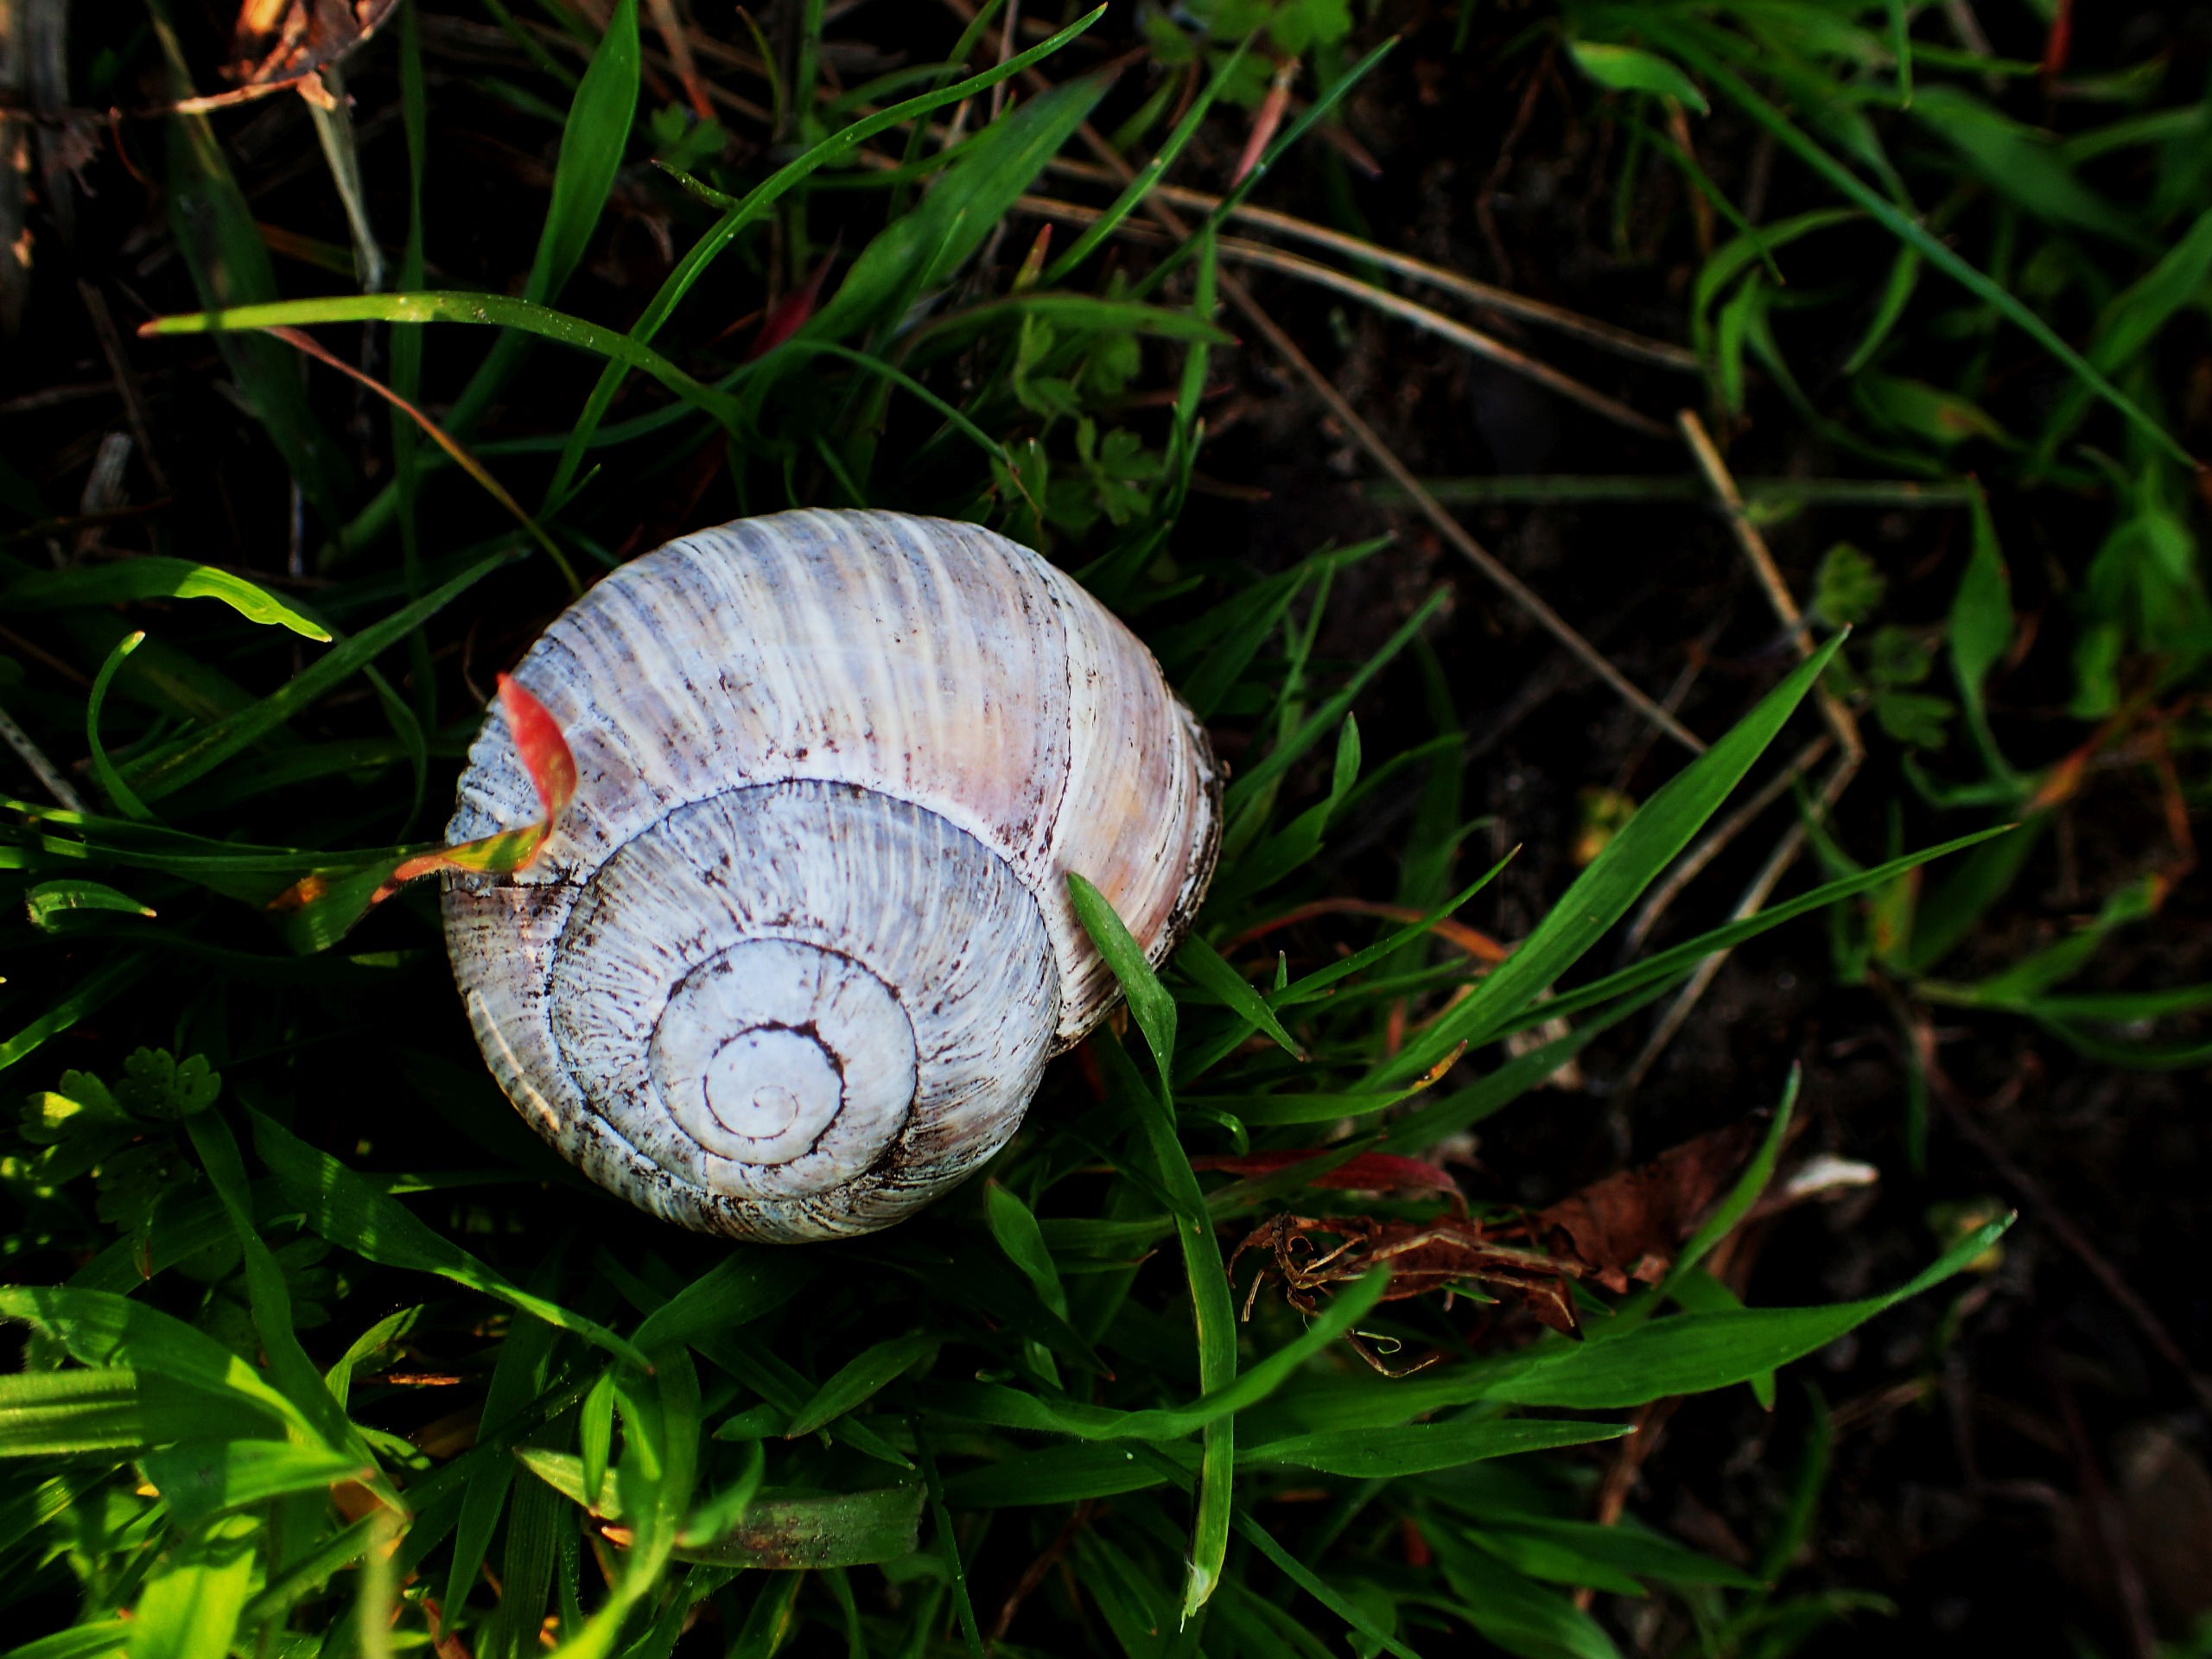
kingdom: Animalia
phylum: Mollusca
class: Gastropoda
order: Stylommatophora
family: Helicidae
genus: Helix
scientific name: Helix pomatia
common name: Vinbjergsnegl
